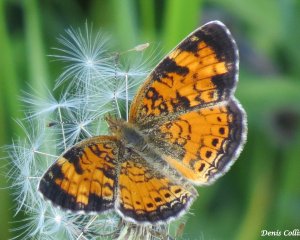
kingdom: Animalia
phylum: Arthropoda
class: Insecta
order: Lepidoptera
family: Nymphalidae
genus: Phyciodes
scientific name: Phyciodes tharos
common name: Northern Crescent
